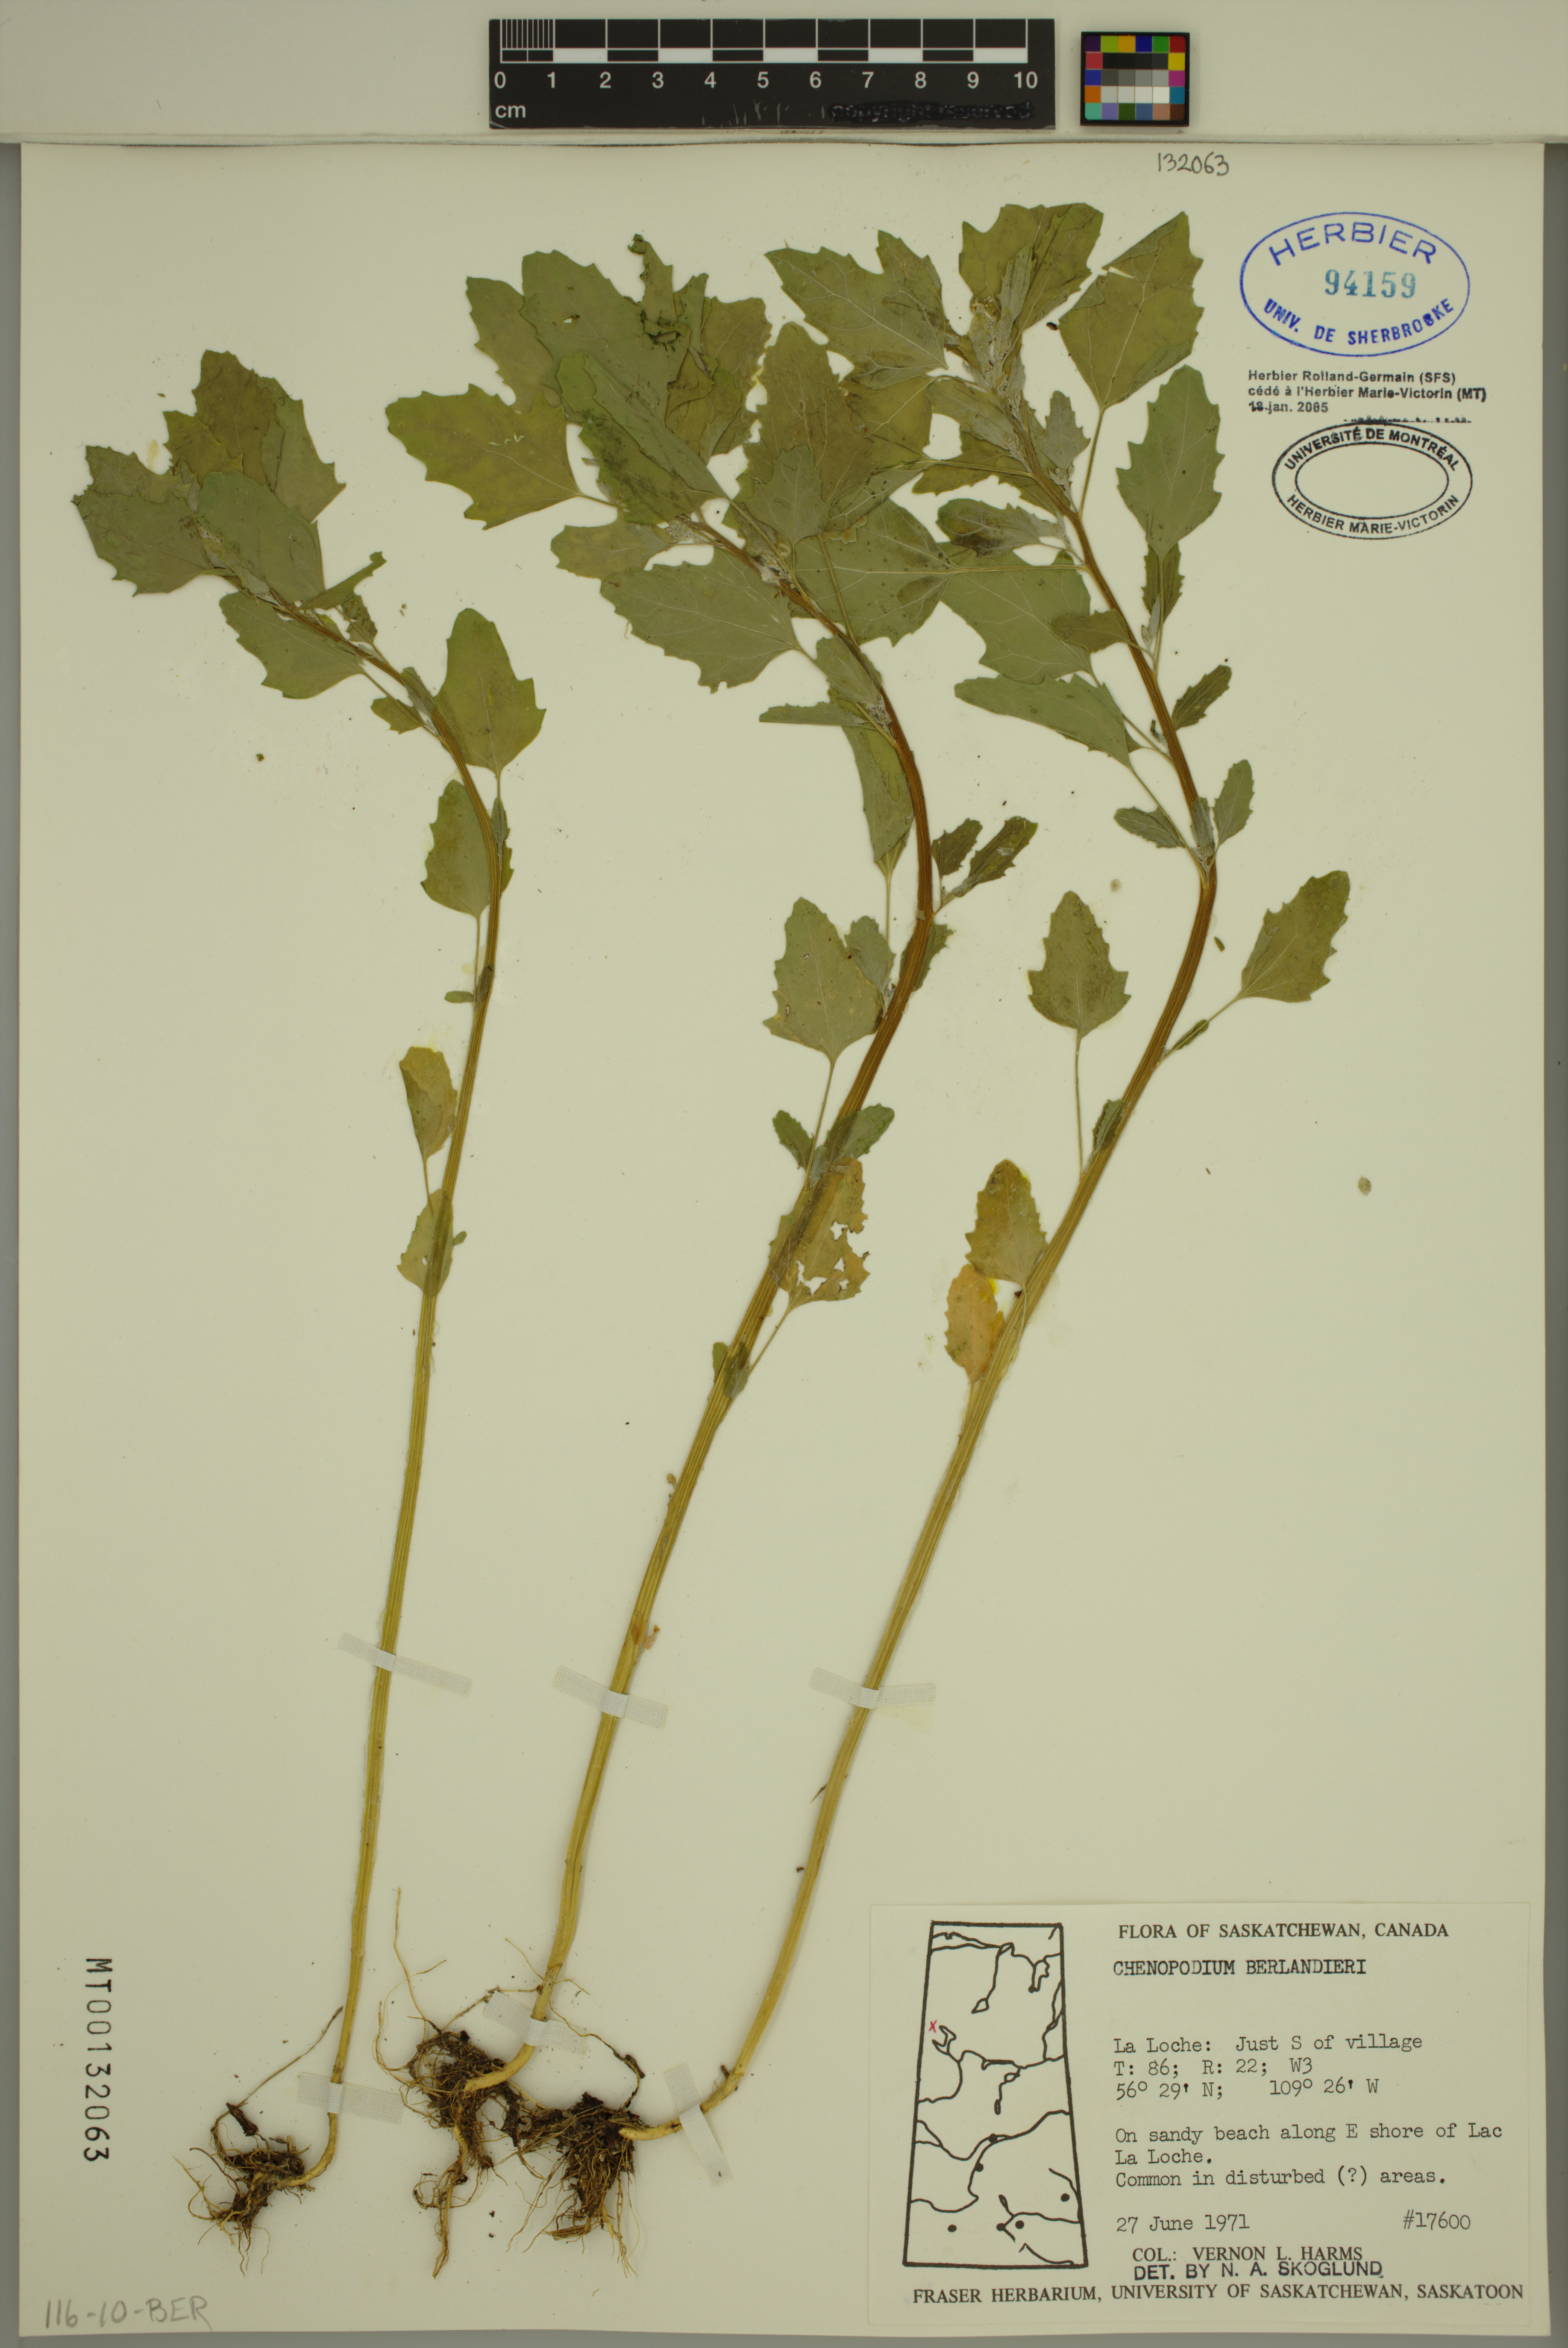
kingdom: Plantae
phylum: Tracheophyta
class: Magnoliopsida
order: Caryophyllales
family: Amaranthaceae
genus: Chenopodium
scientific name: Chenopodium berlandieri
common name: Pit-seed goosefoot
